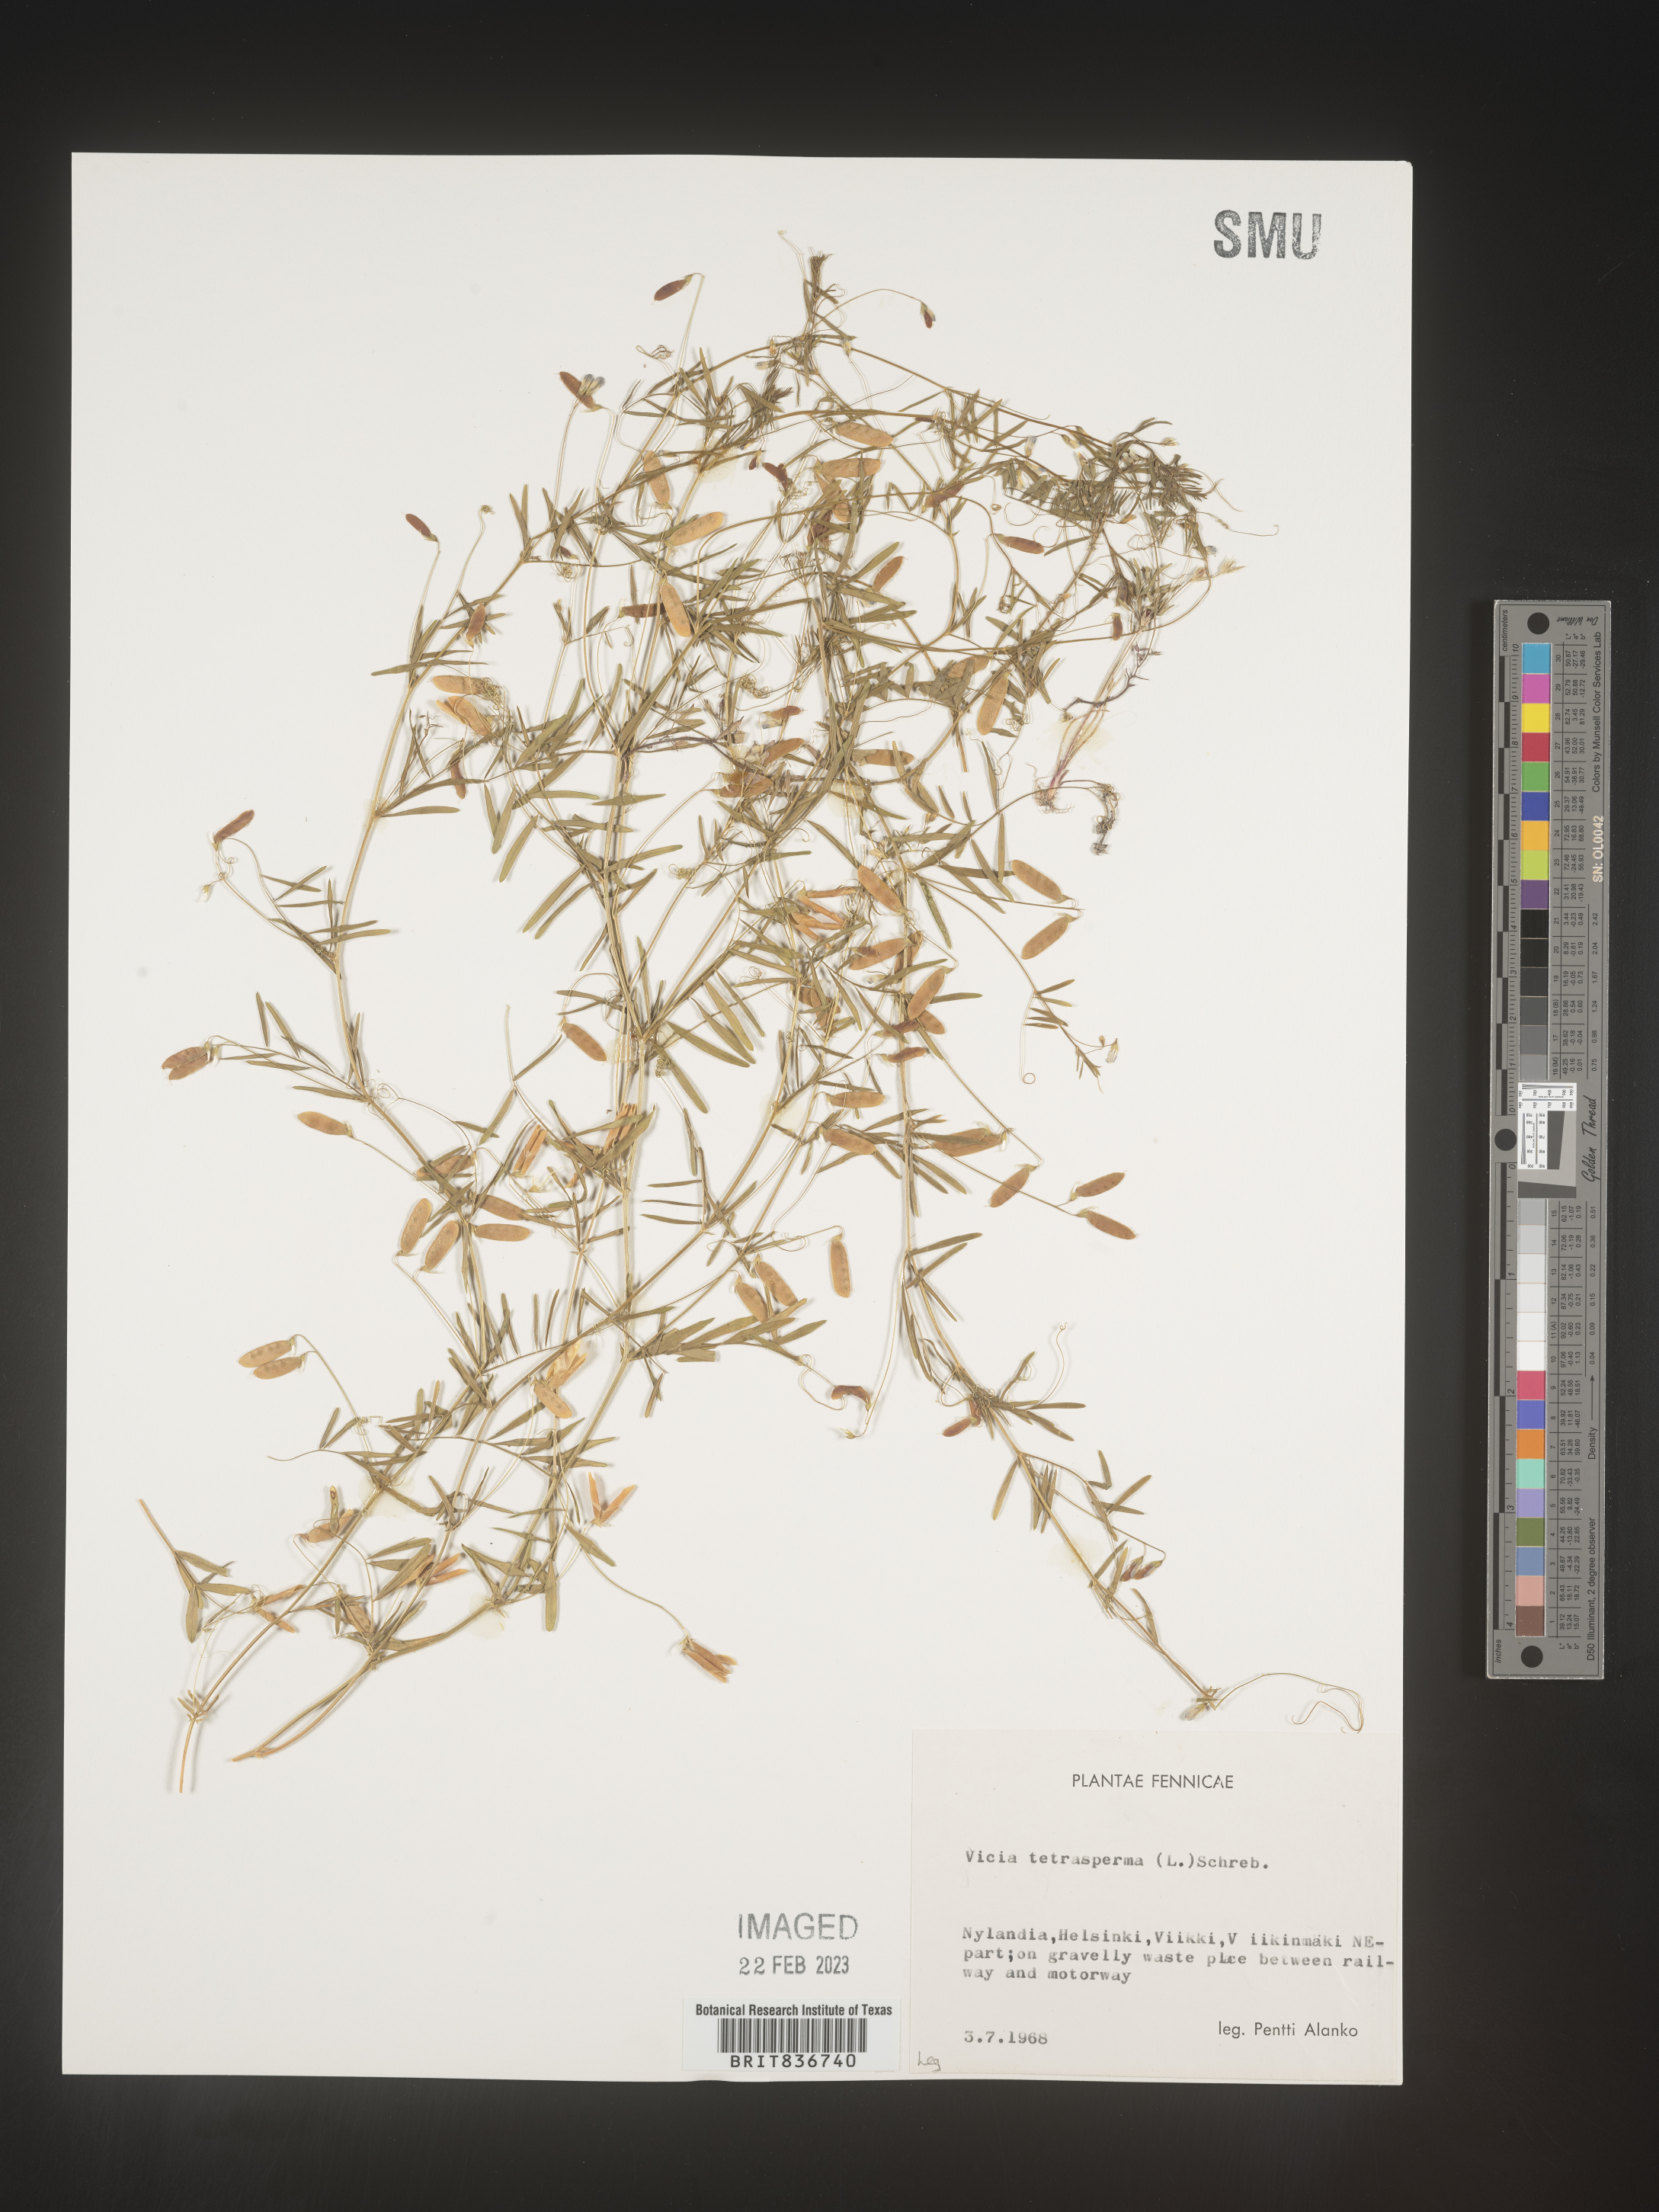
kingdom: Plantae
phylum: Tracheophyta
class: Magnoliopsida
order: Fabales
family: Fabaceae
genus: Vicia
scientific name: Vicia
